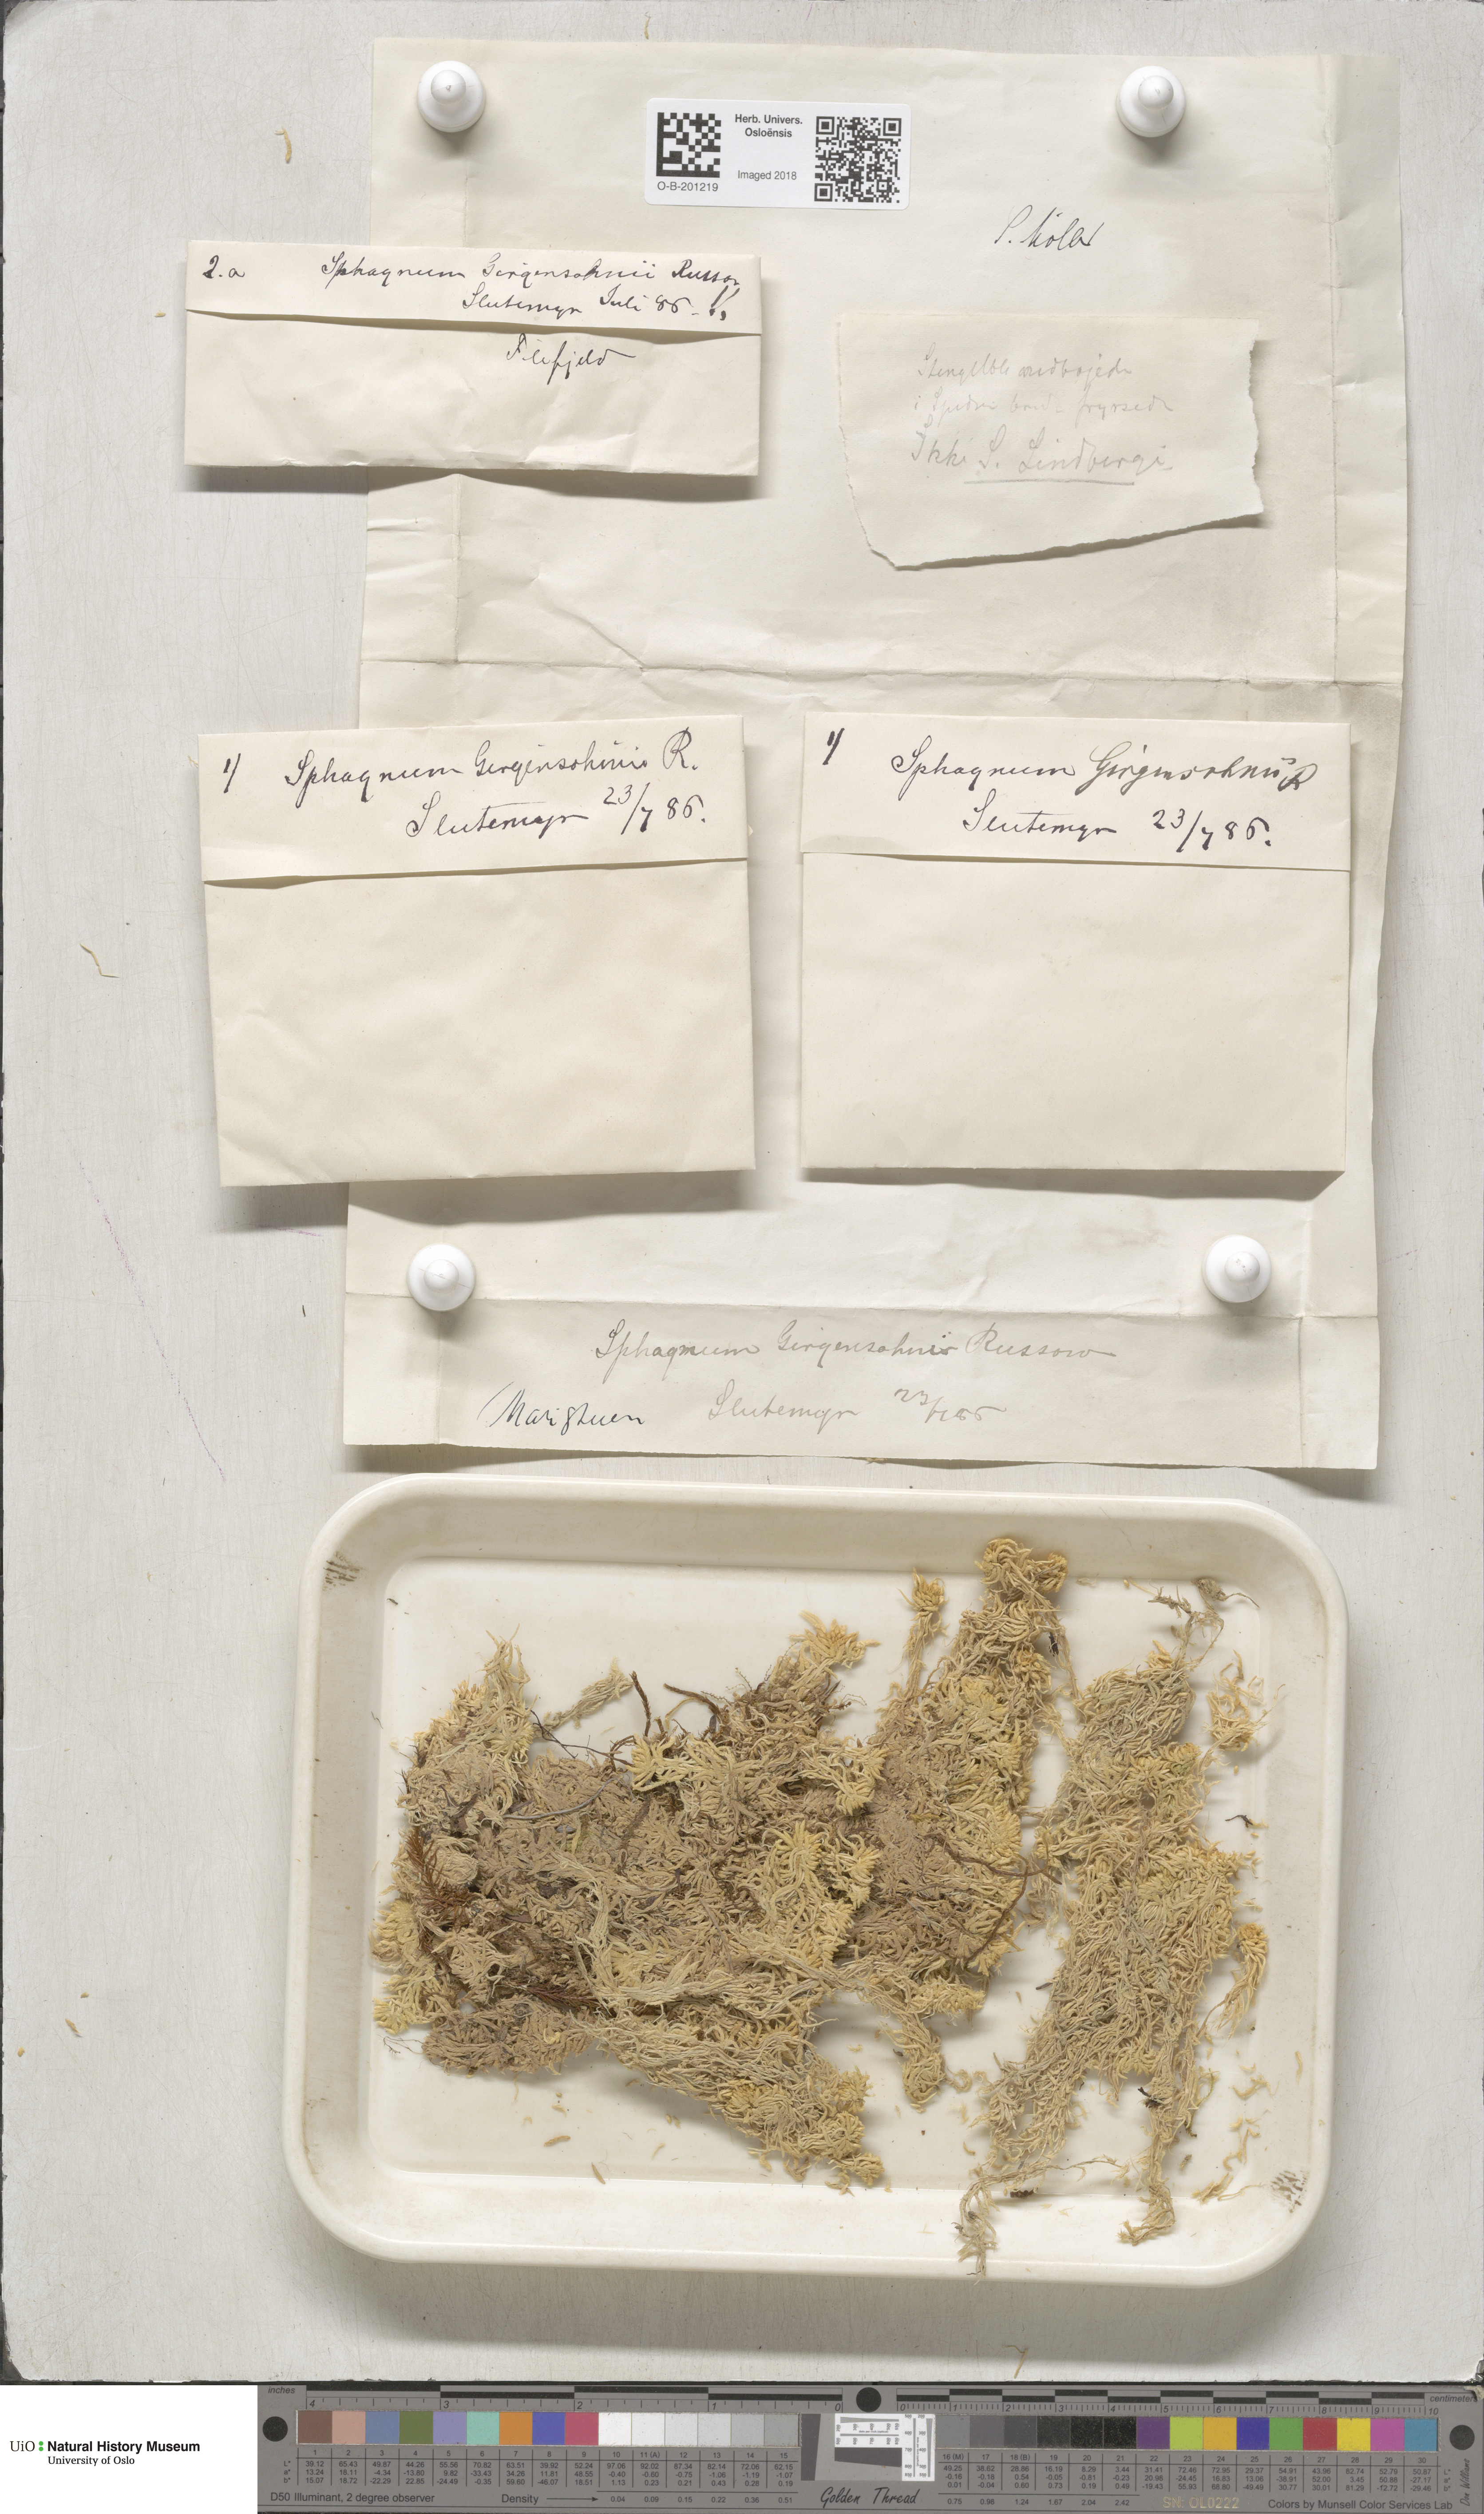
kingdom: Plantae
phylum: Bryophyta
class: Sphagnopsida
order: Sphagnales
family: Sphagnaceae
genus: Sphagnum
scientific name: Sphagnum girgensohnii
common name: Girgensohn's peat moss
